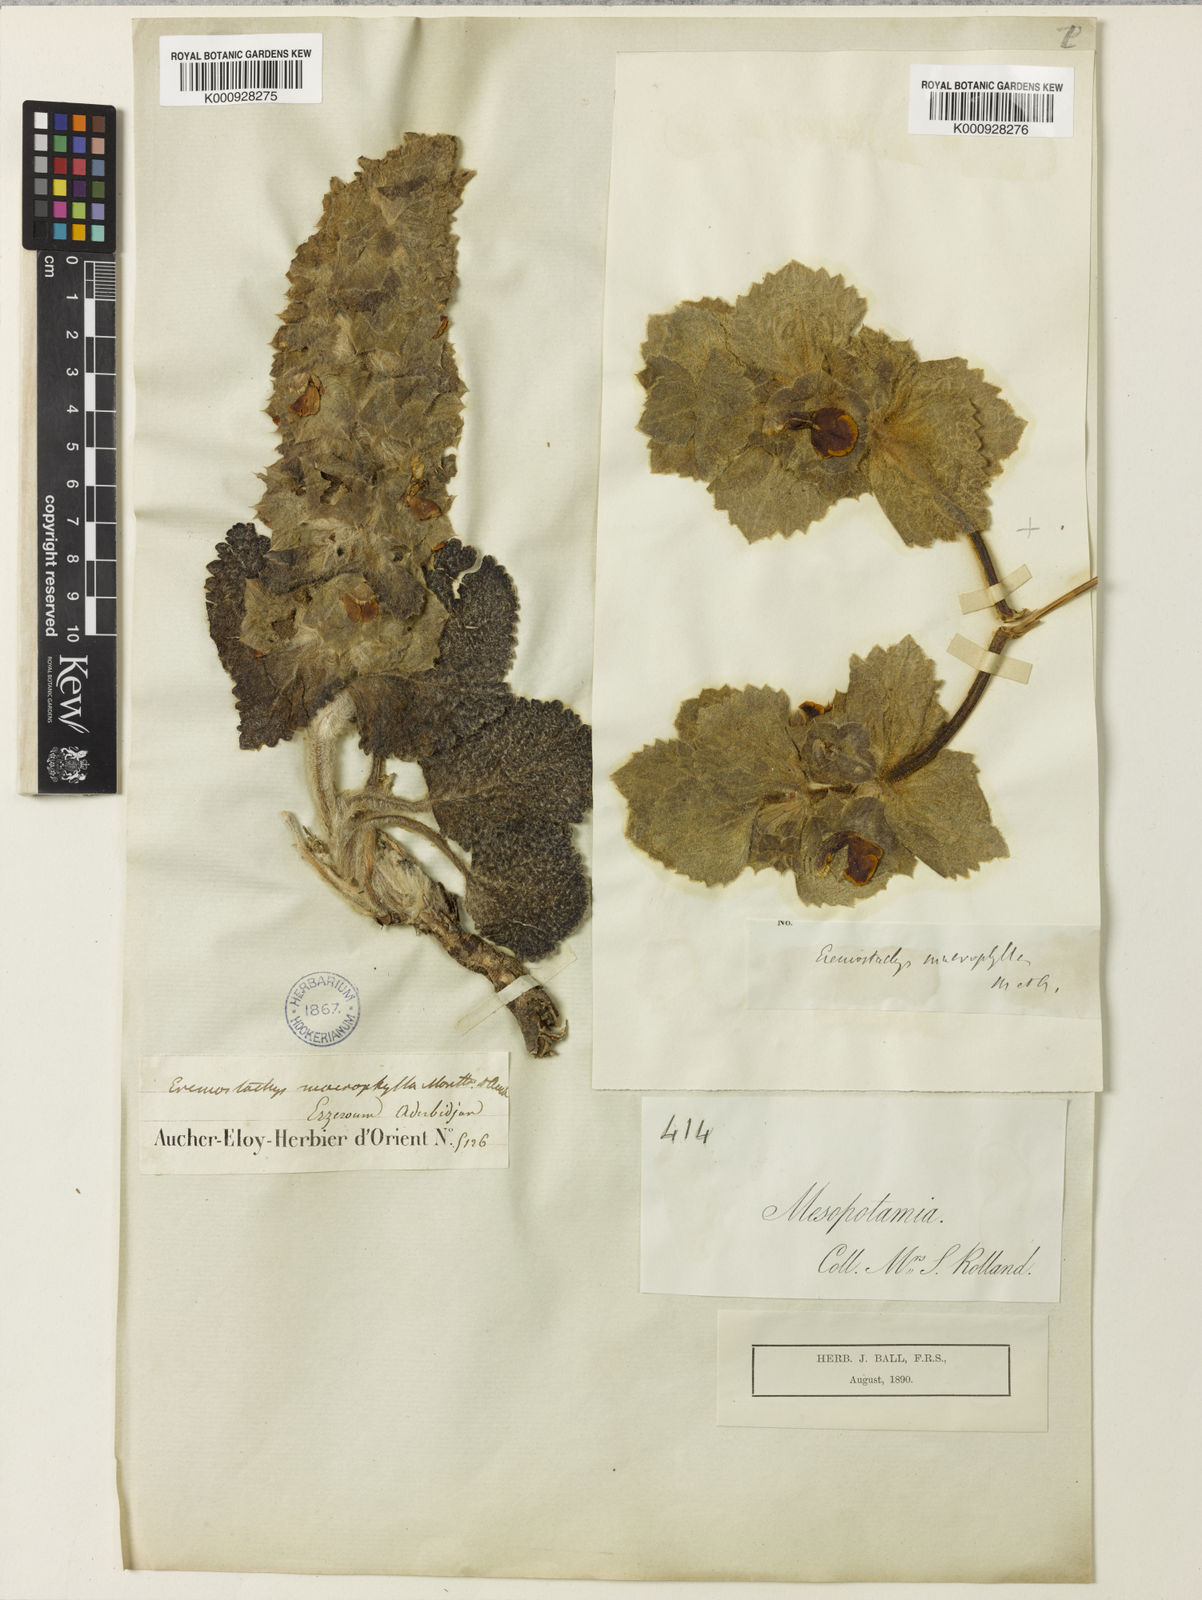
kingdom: Plantae
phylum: Tracheophyta
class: Magnoliopsida
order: Lamiales
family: Lamiaceae
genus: Phlomoides
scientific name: Phlomoides
